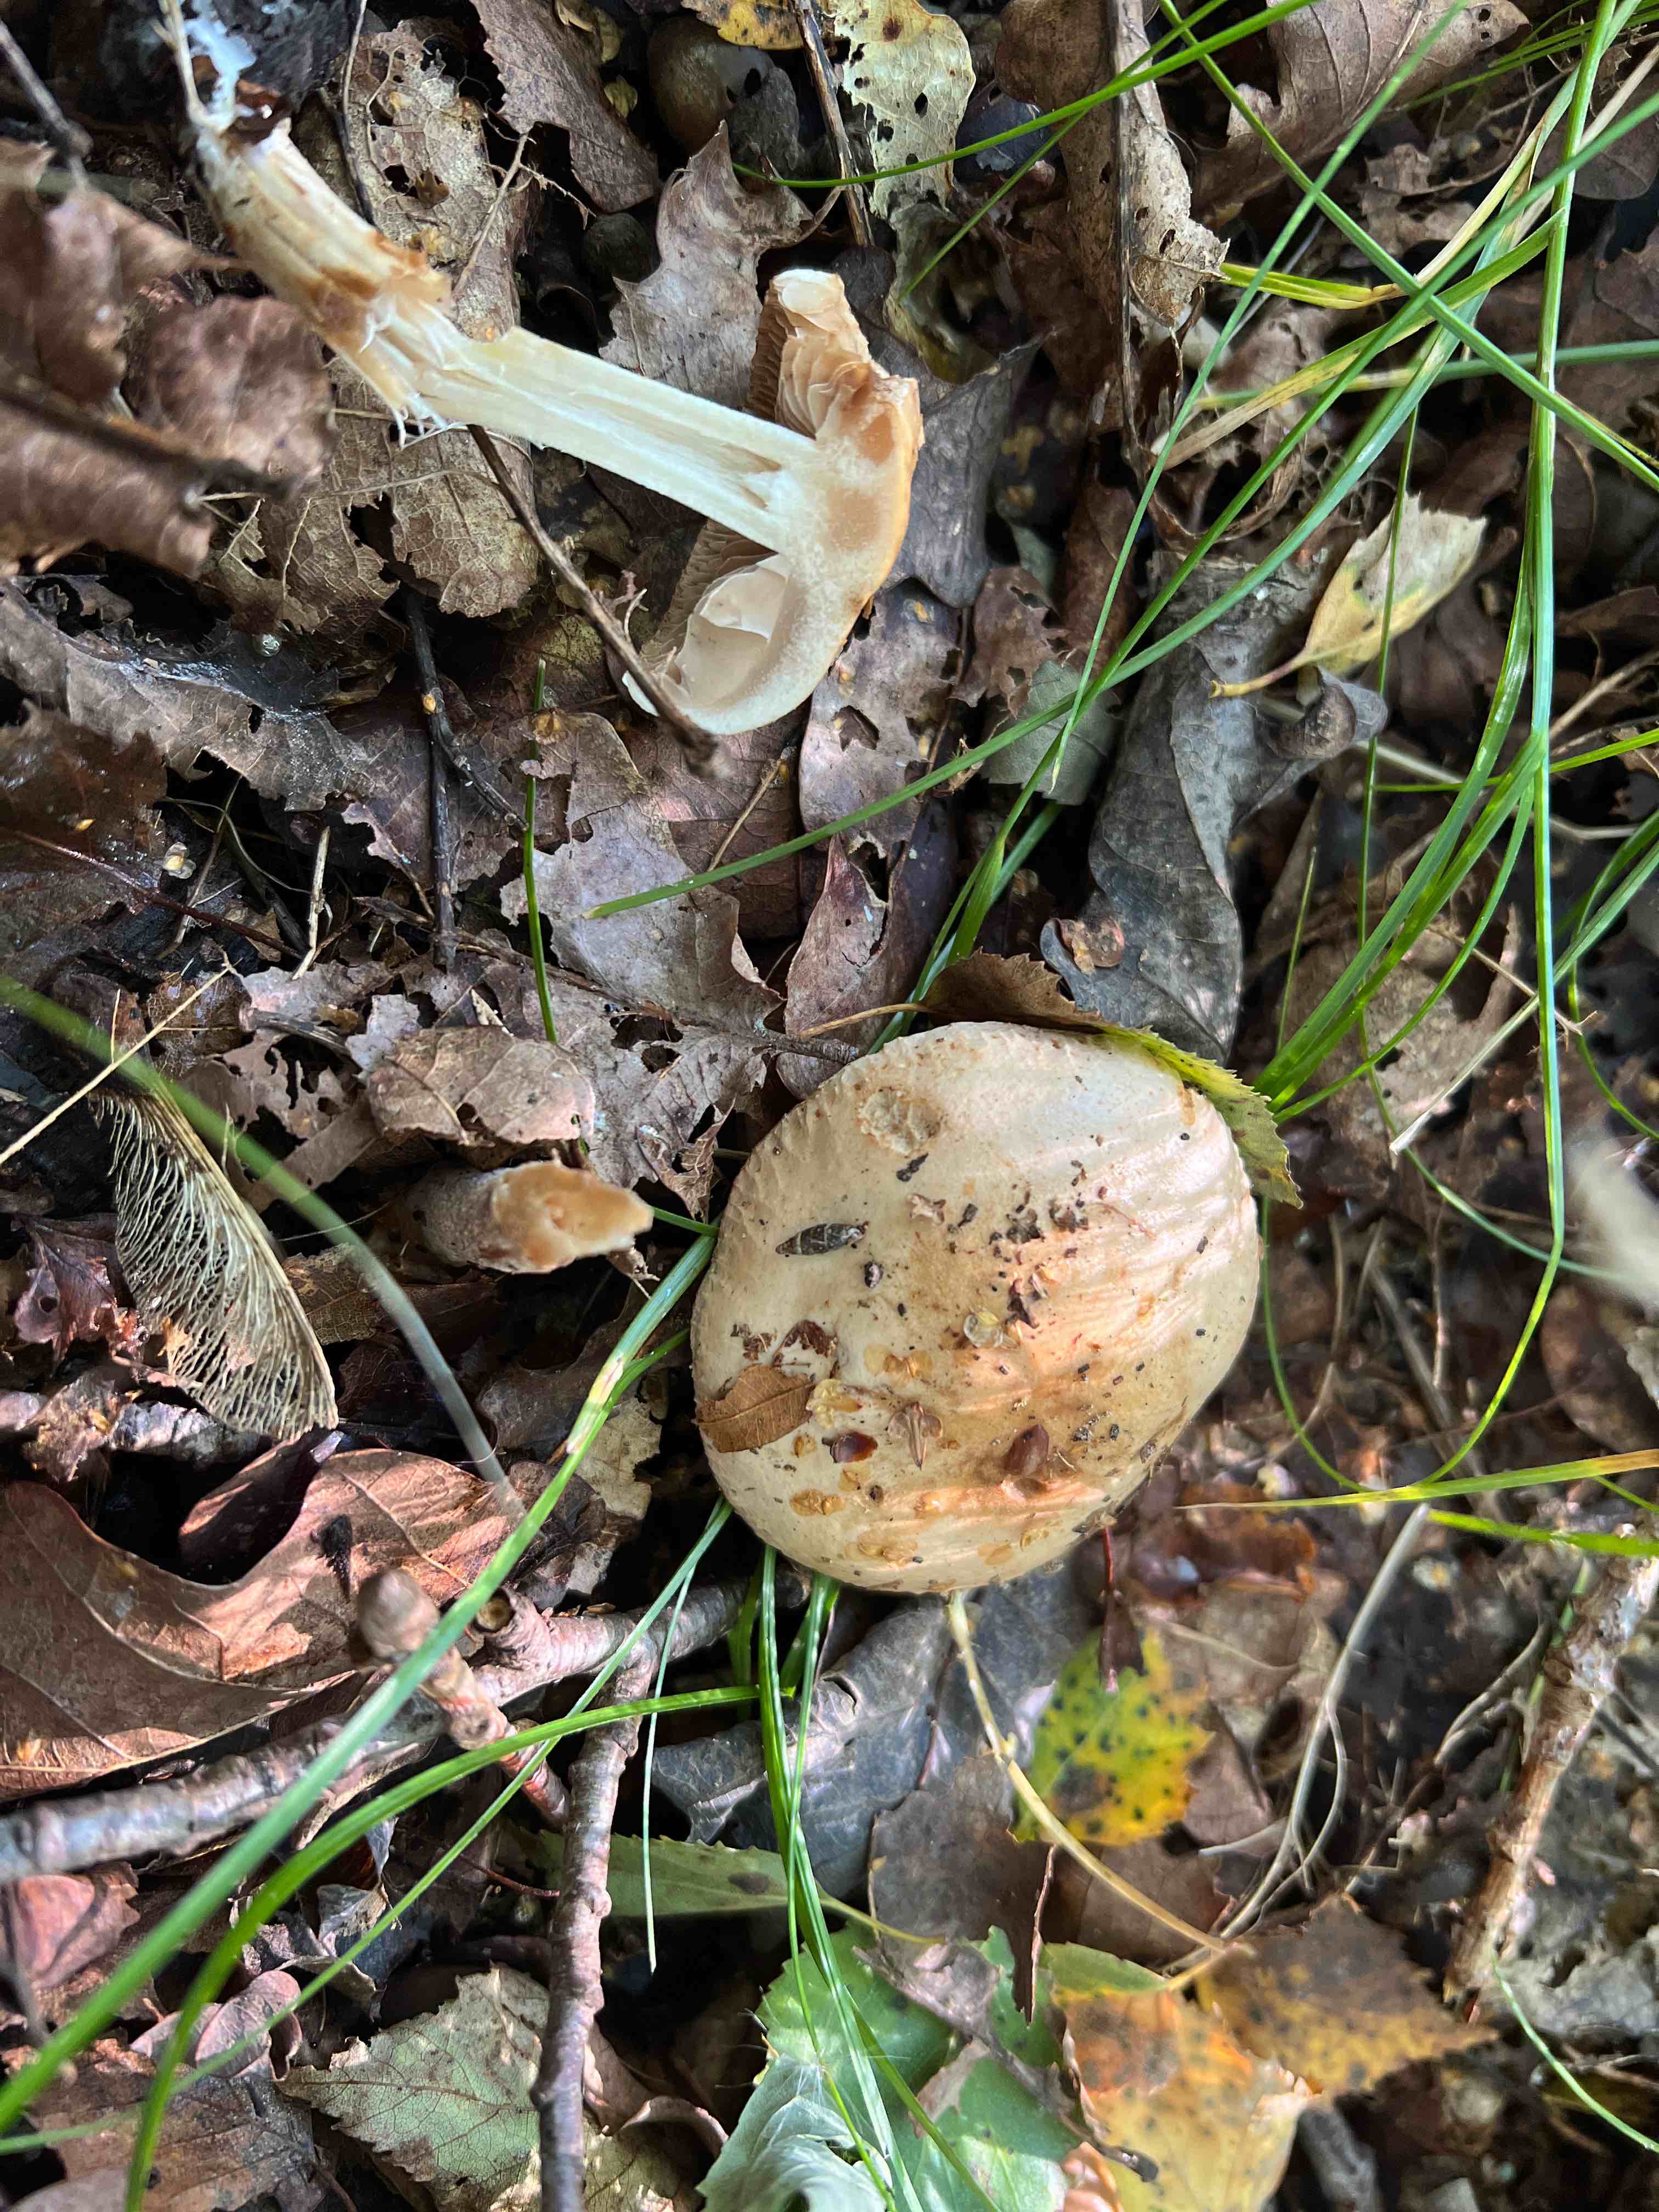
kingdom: Fungi
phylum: Basidiomycota
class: Agaricomycetes
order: Agaricales
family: Hymenogastraceae
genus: Hebeloma
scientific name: Hebeloma
